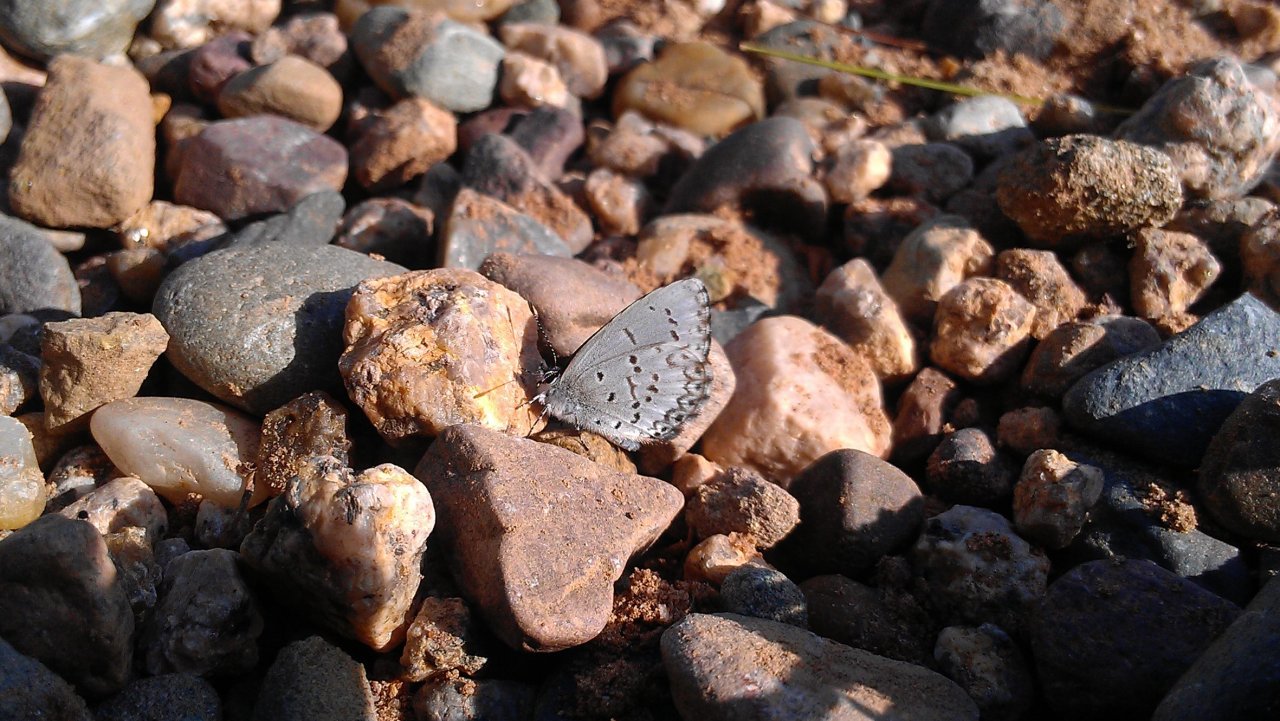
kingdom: Animalia
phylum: Arthropoda
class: Insecta
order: Lepidoptera
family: Lycaenidae
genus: Celastrina
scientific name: Celastrina lucia
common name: Northern Spring Azure
